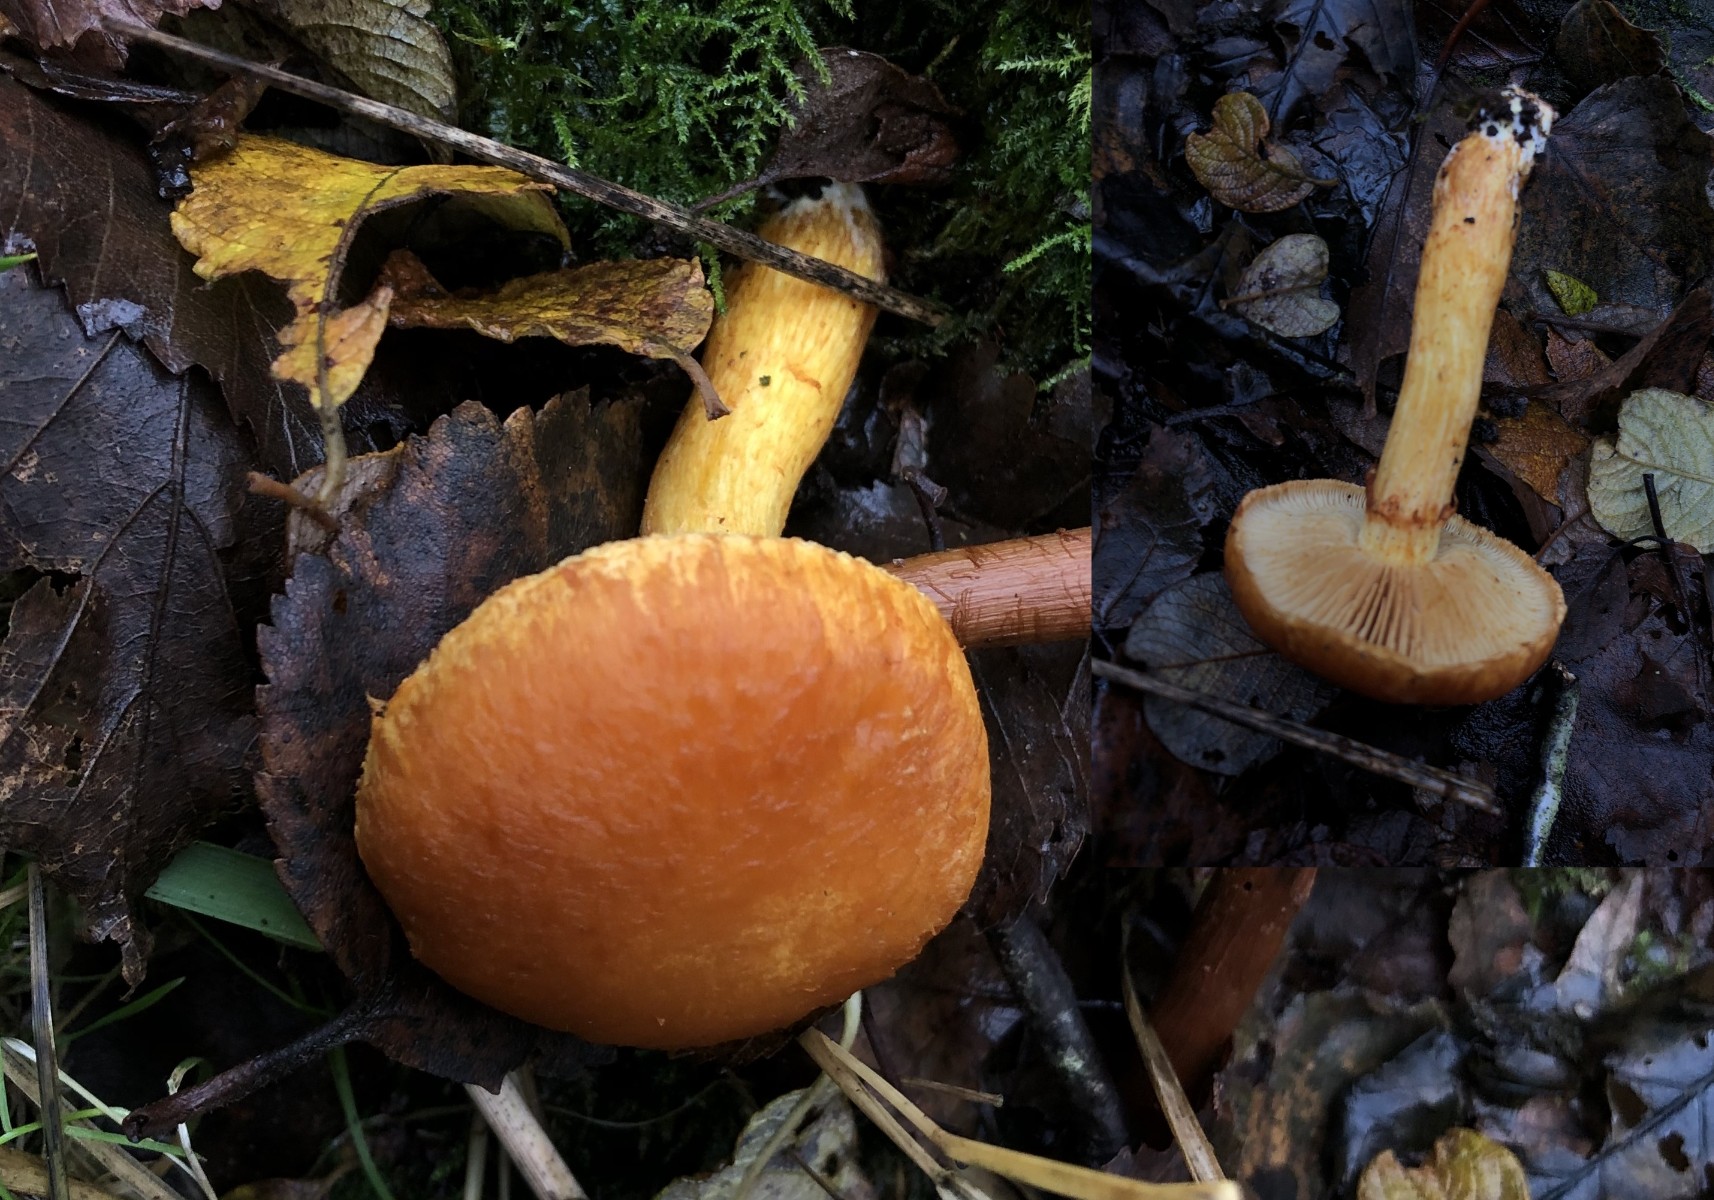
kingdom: Fungi
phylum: Basidiomycota
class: Agaricomycetes
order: Agaricales
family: Hymenogastraceae
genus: Gymnopilus
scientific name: Gymnopilus spectabilis
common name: fibret flammehat
